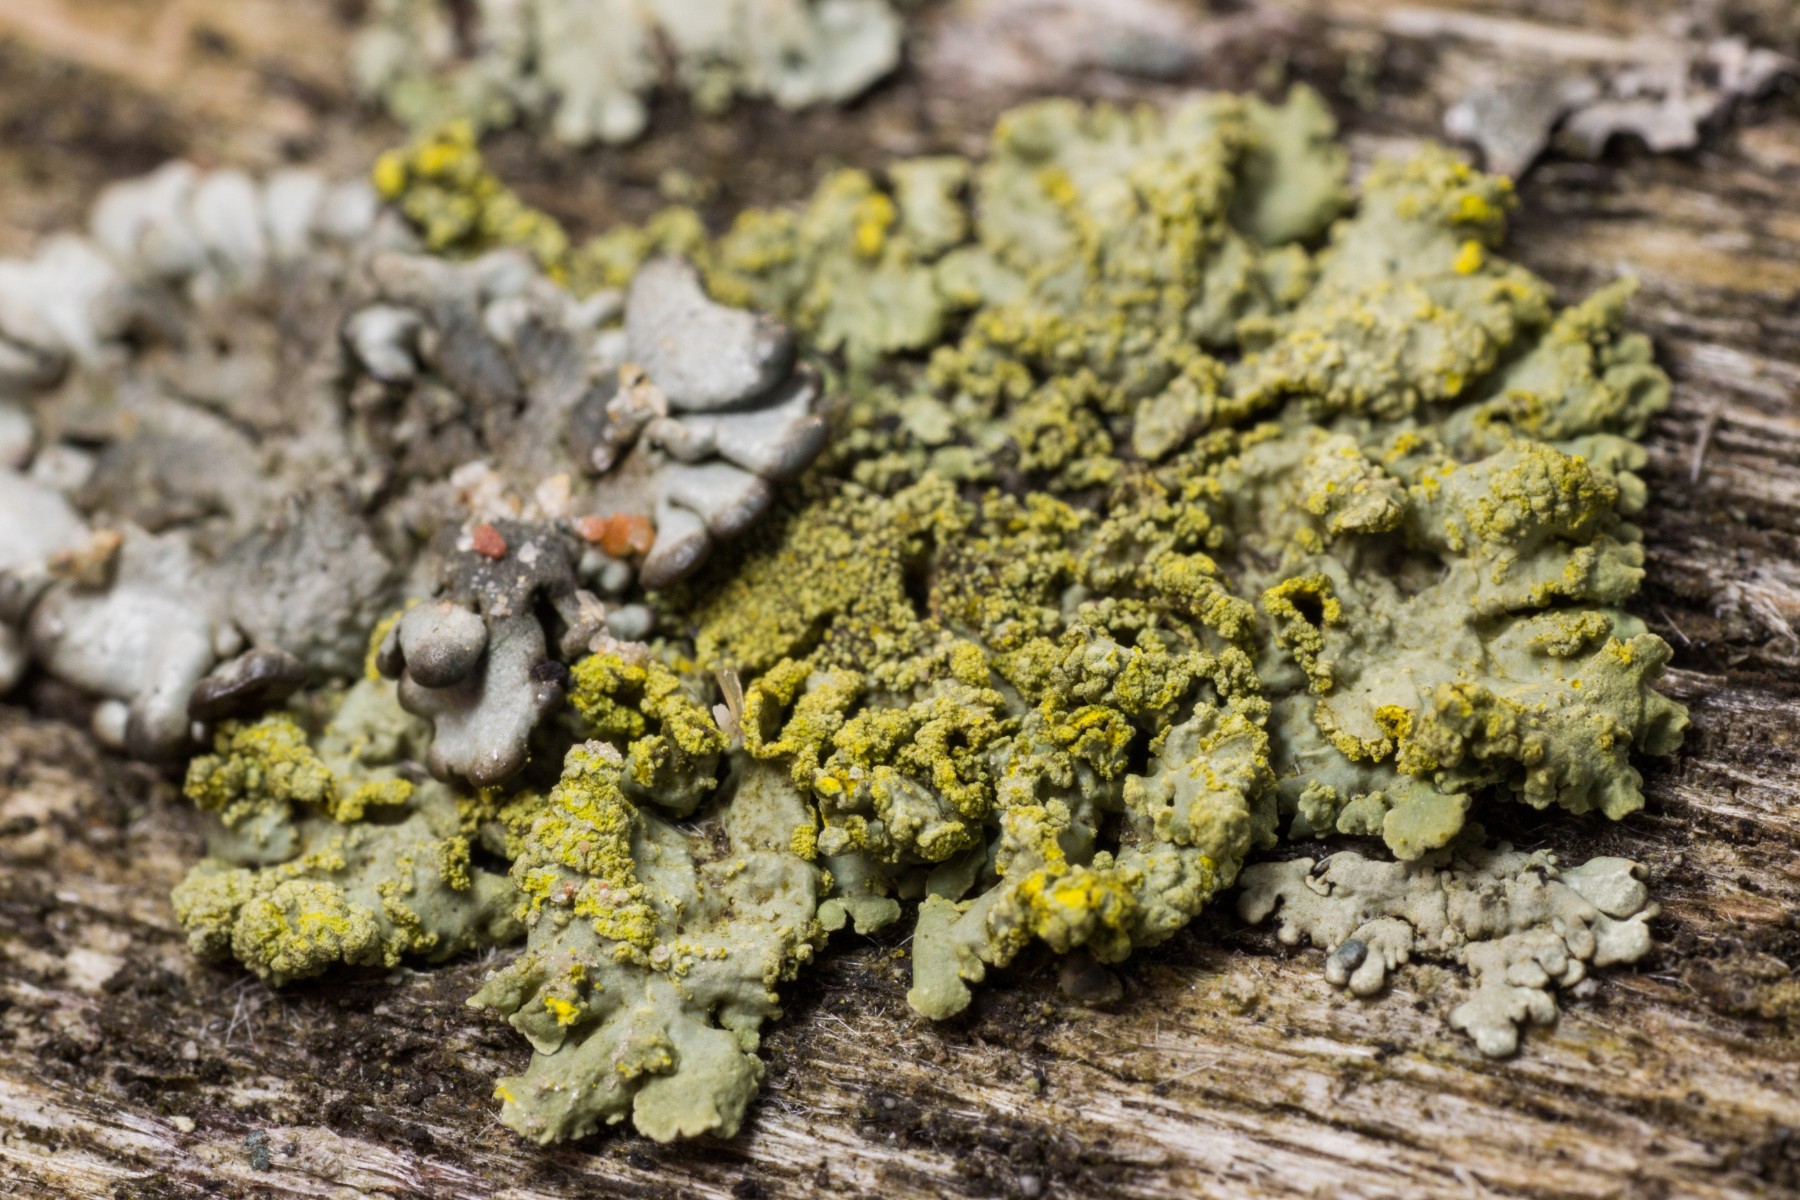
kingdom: Fungi
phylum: Ascomycota
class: Lecanoromycetes
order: Lecanorales
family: Parmeliaceae
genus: Vulpicida
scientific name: Vulpicida pinastri
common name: gul kruslav
